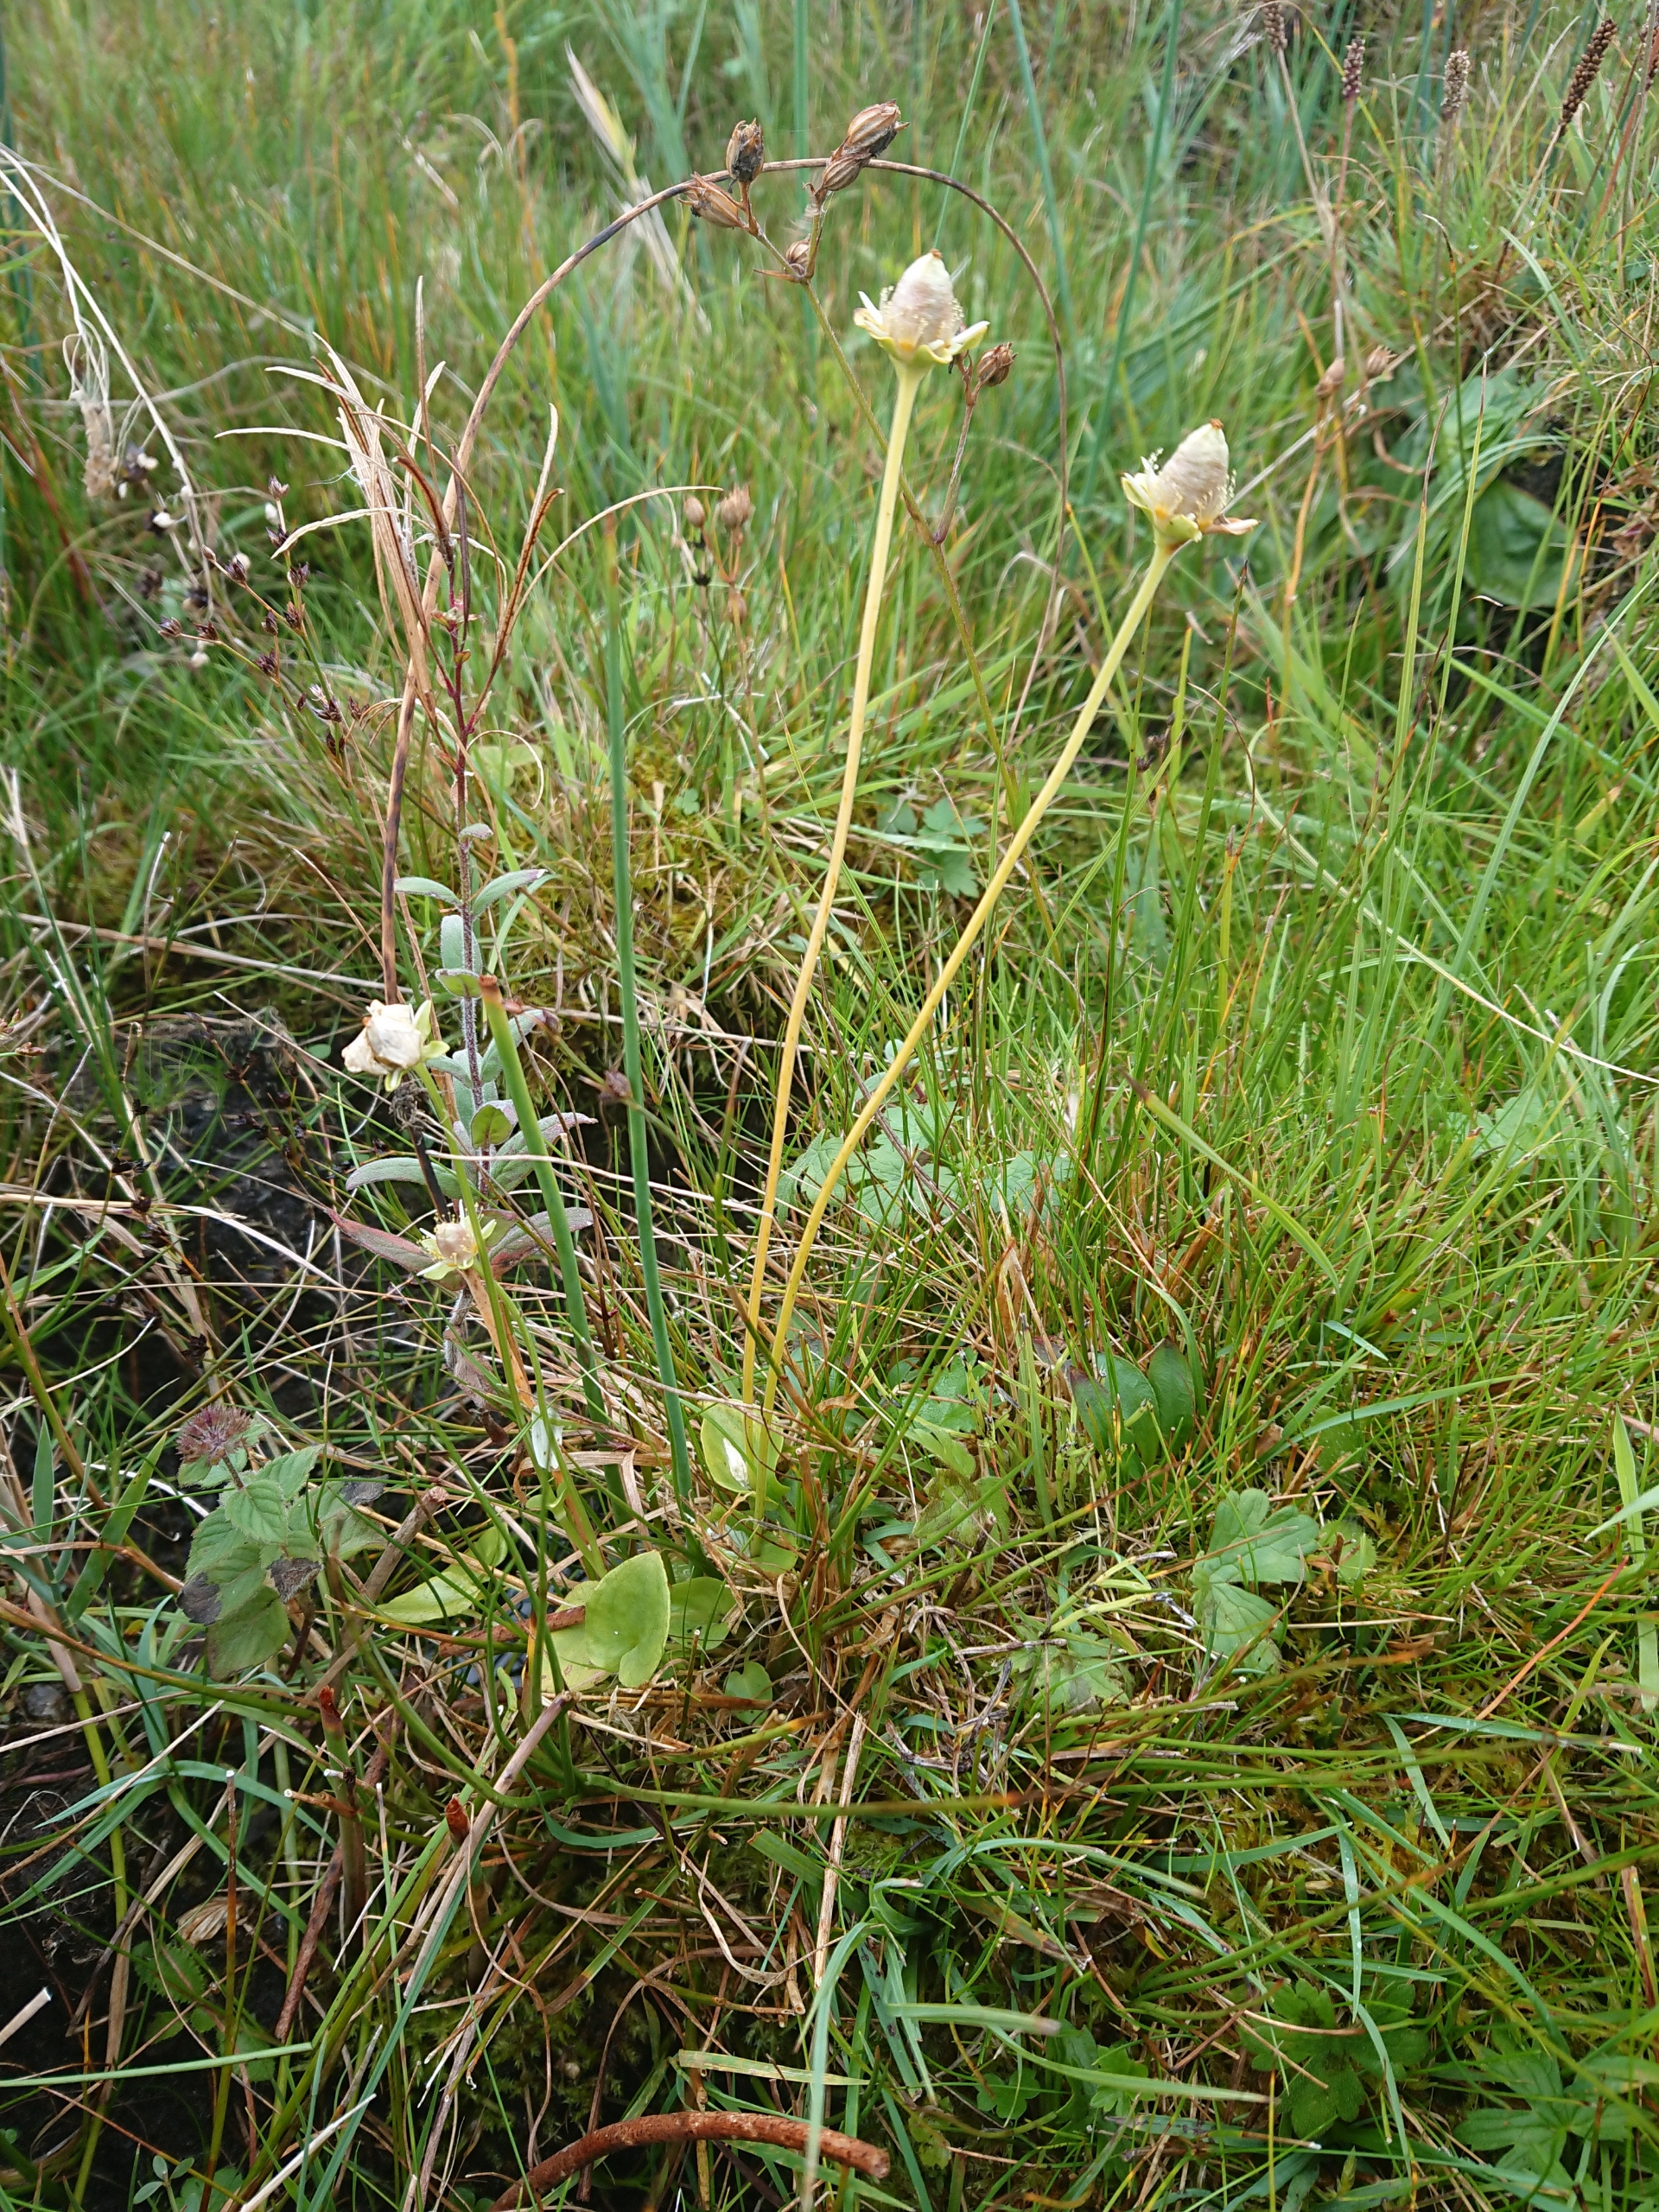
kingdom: Plantae
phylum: Tracheophyta
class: Magnoliopsida
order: Celastrales
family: Parnassiaceae
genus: Parnassia
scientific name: Parnassia palustris
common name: Leverurt
